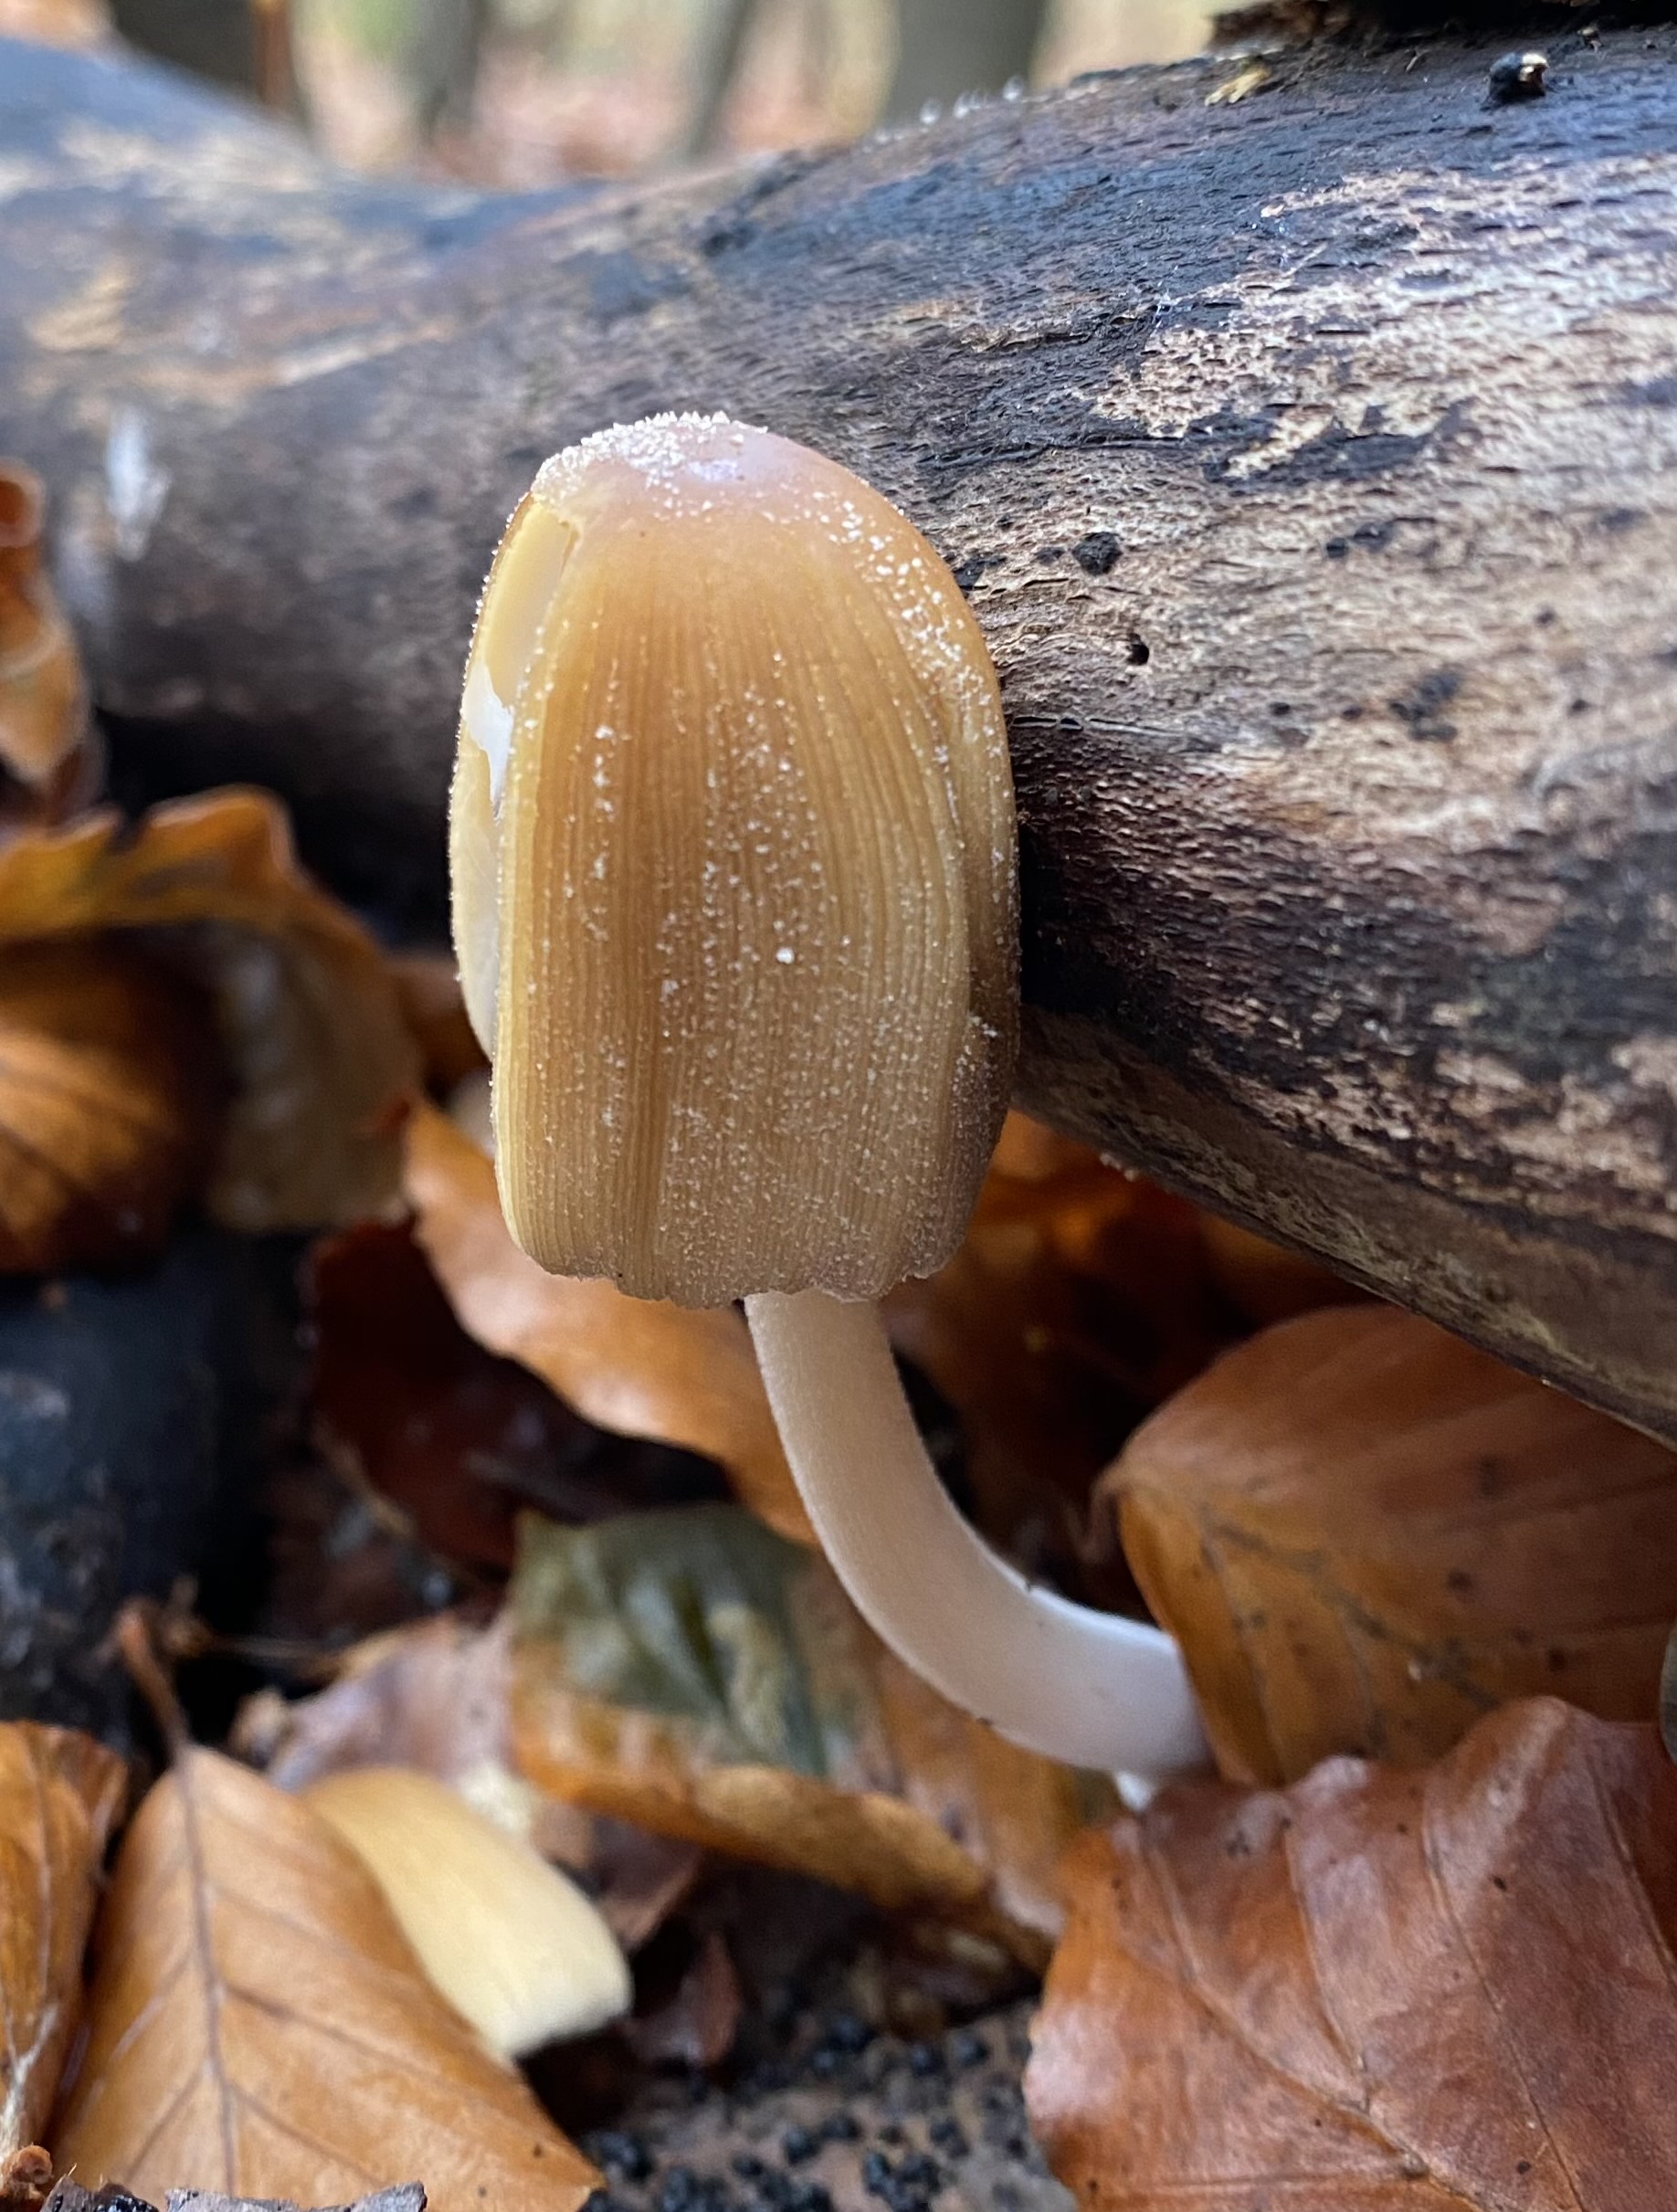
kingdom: Fungi
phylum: Basidiomycota
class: Agaricomycetes
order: Agaricales
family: Psathyrellaceae
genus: Coprinellus
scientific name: Coprinellus micaceus
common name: glimmer-blækhat
